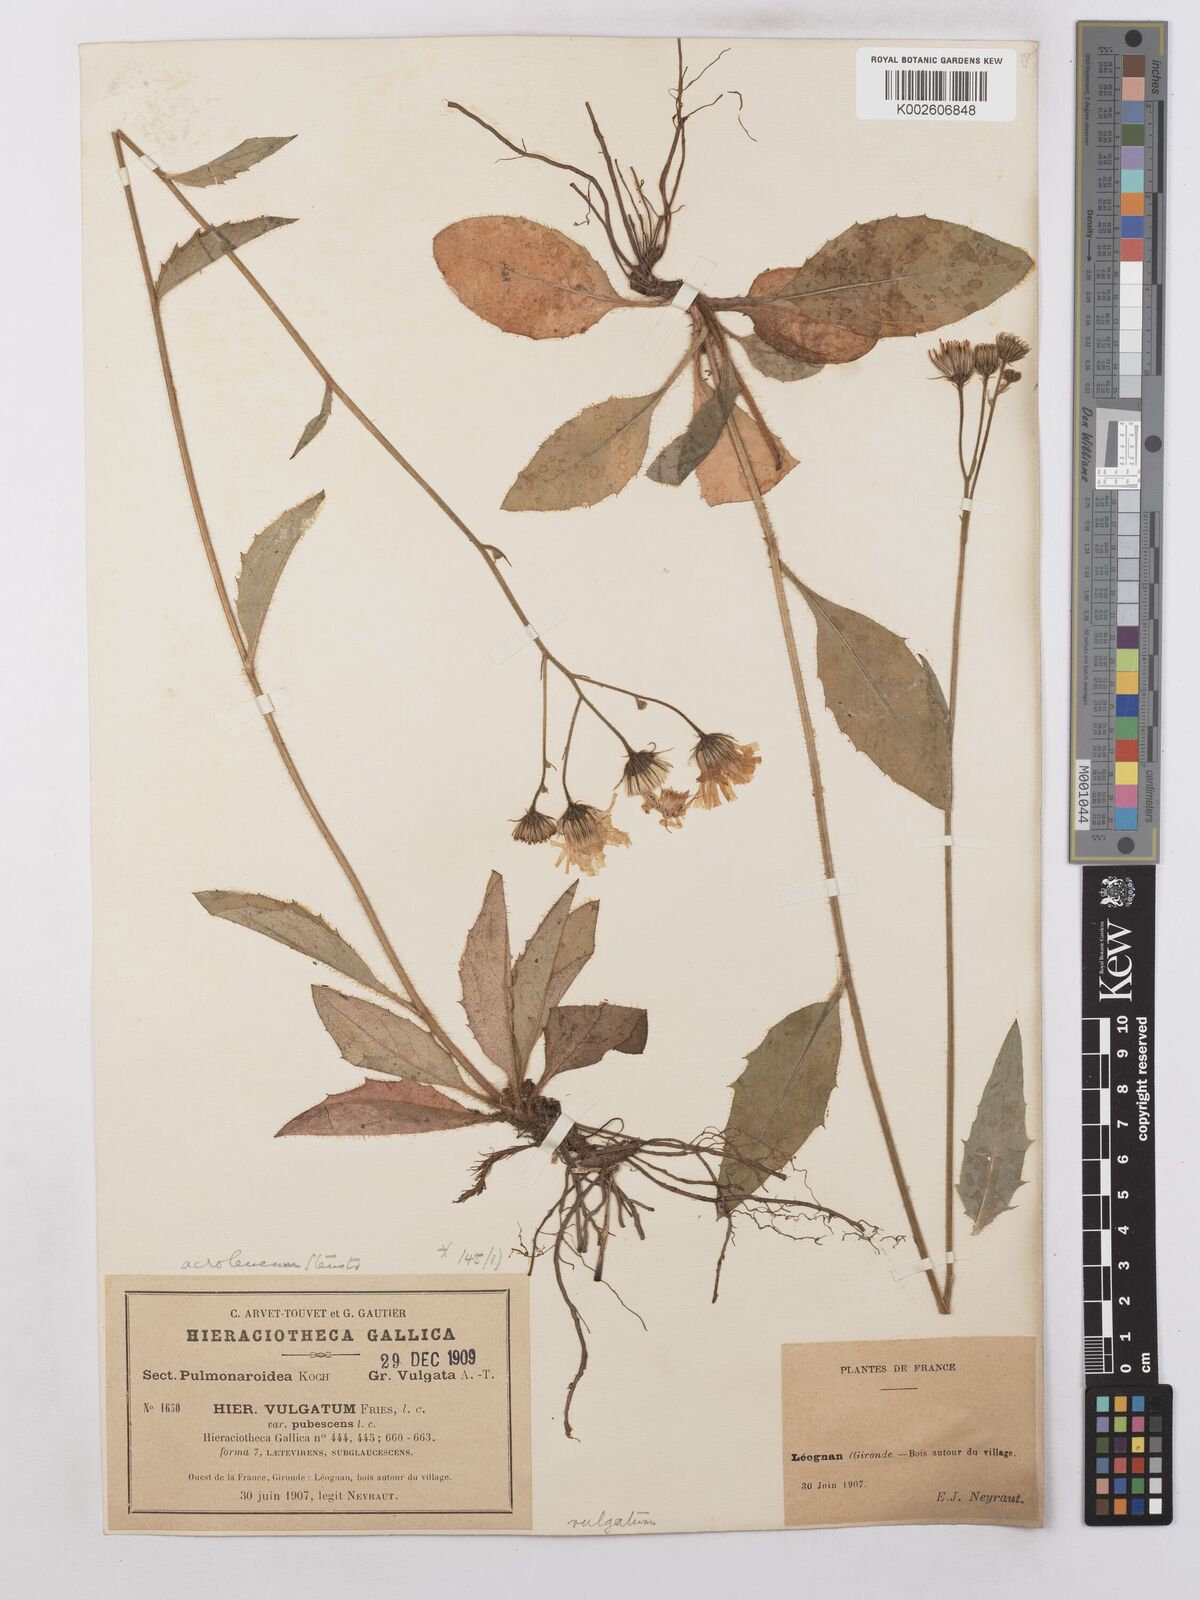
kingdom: Plantae
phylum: Tracheophyta
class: Magnoliopsida
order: Asterales
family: Asteraceae
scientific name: Asteraceae
